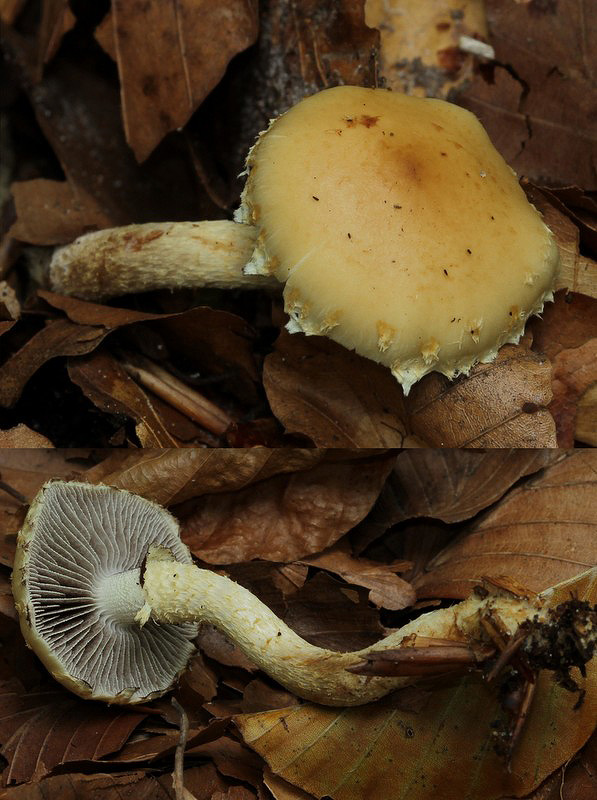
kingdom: Fungi
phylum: Basidiomycota
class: Agaricomycetes
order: Agaricales
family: Strophariaceae
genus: Leratiomyces
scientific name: Leratiomyces squamosus
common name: skællet bredblad
